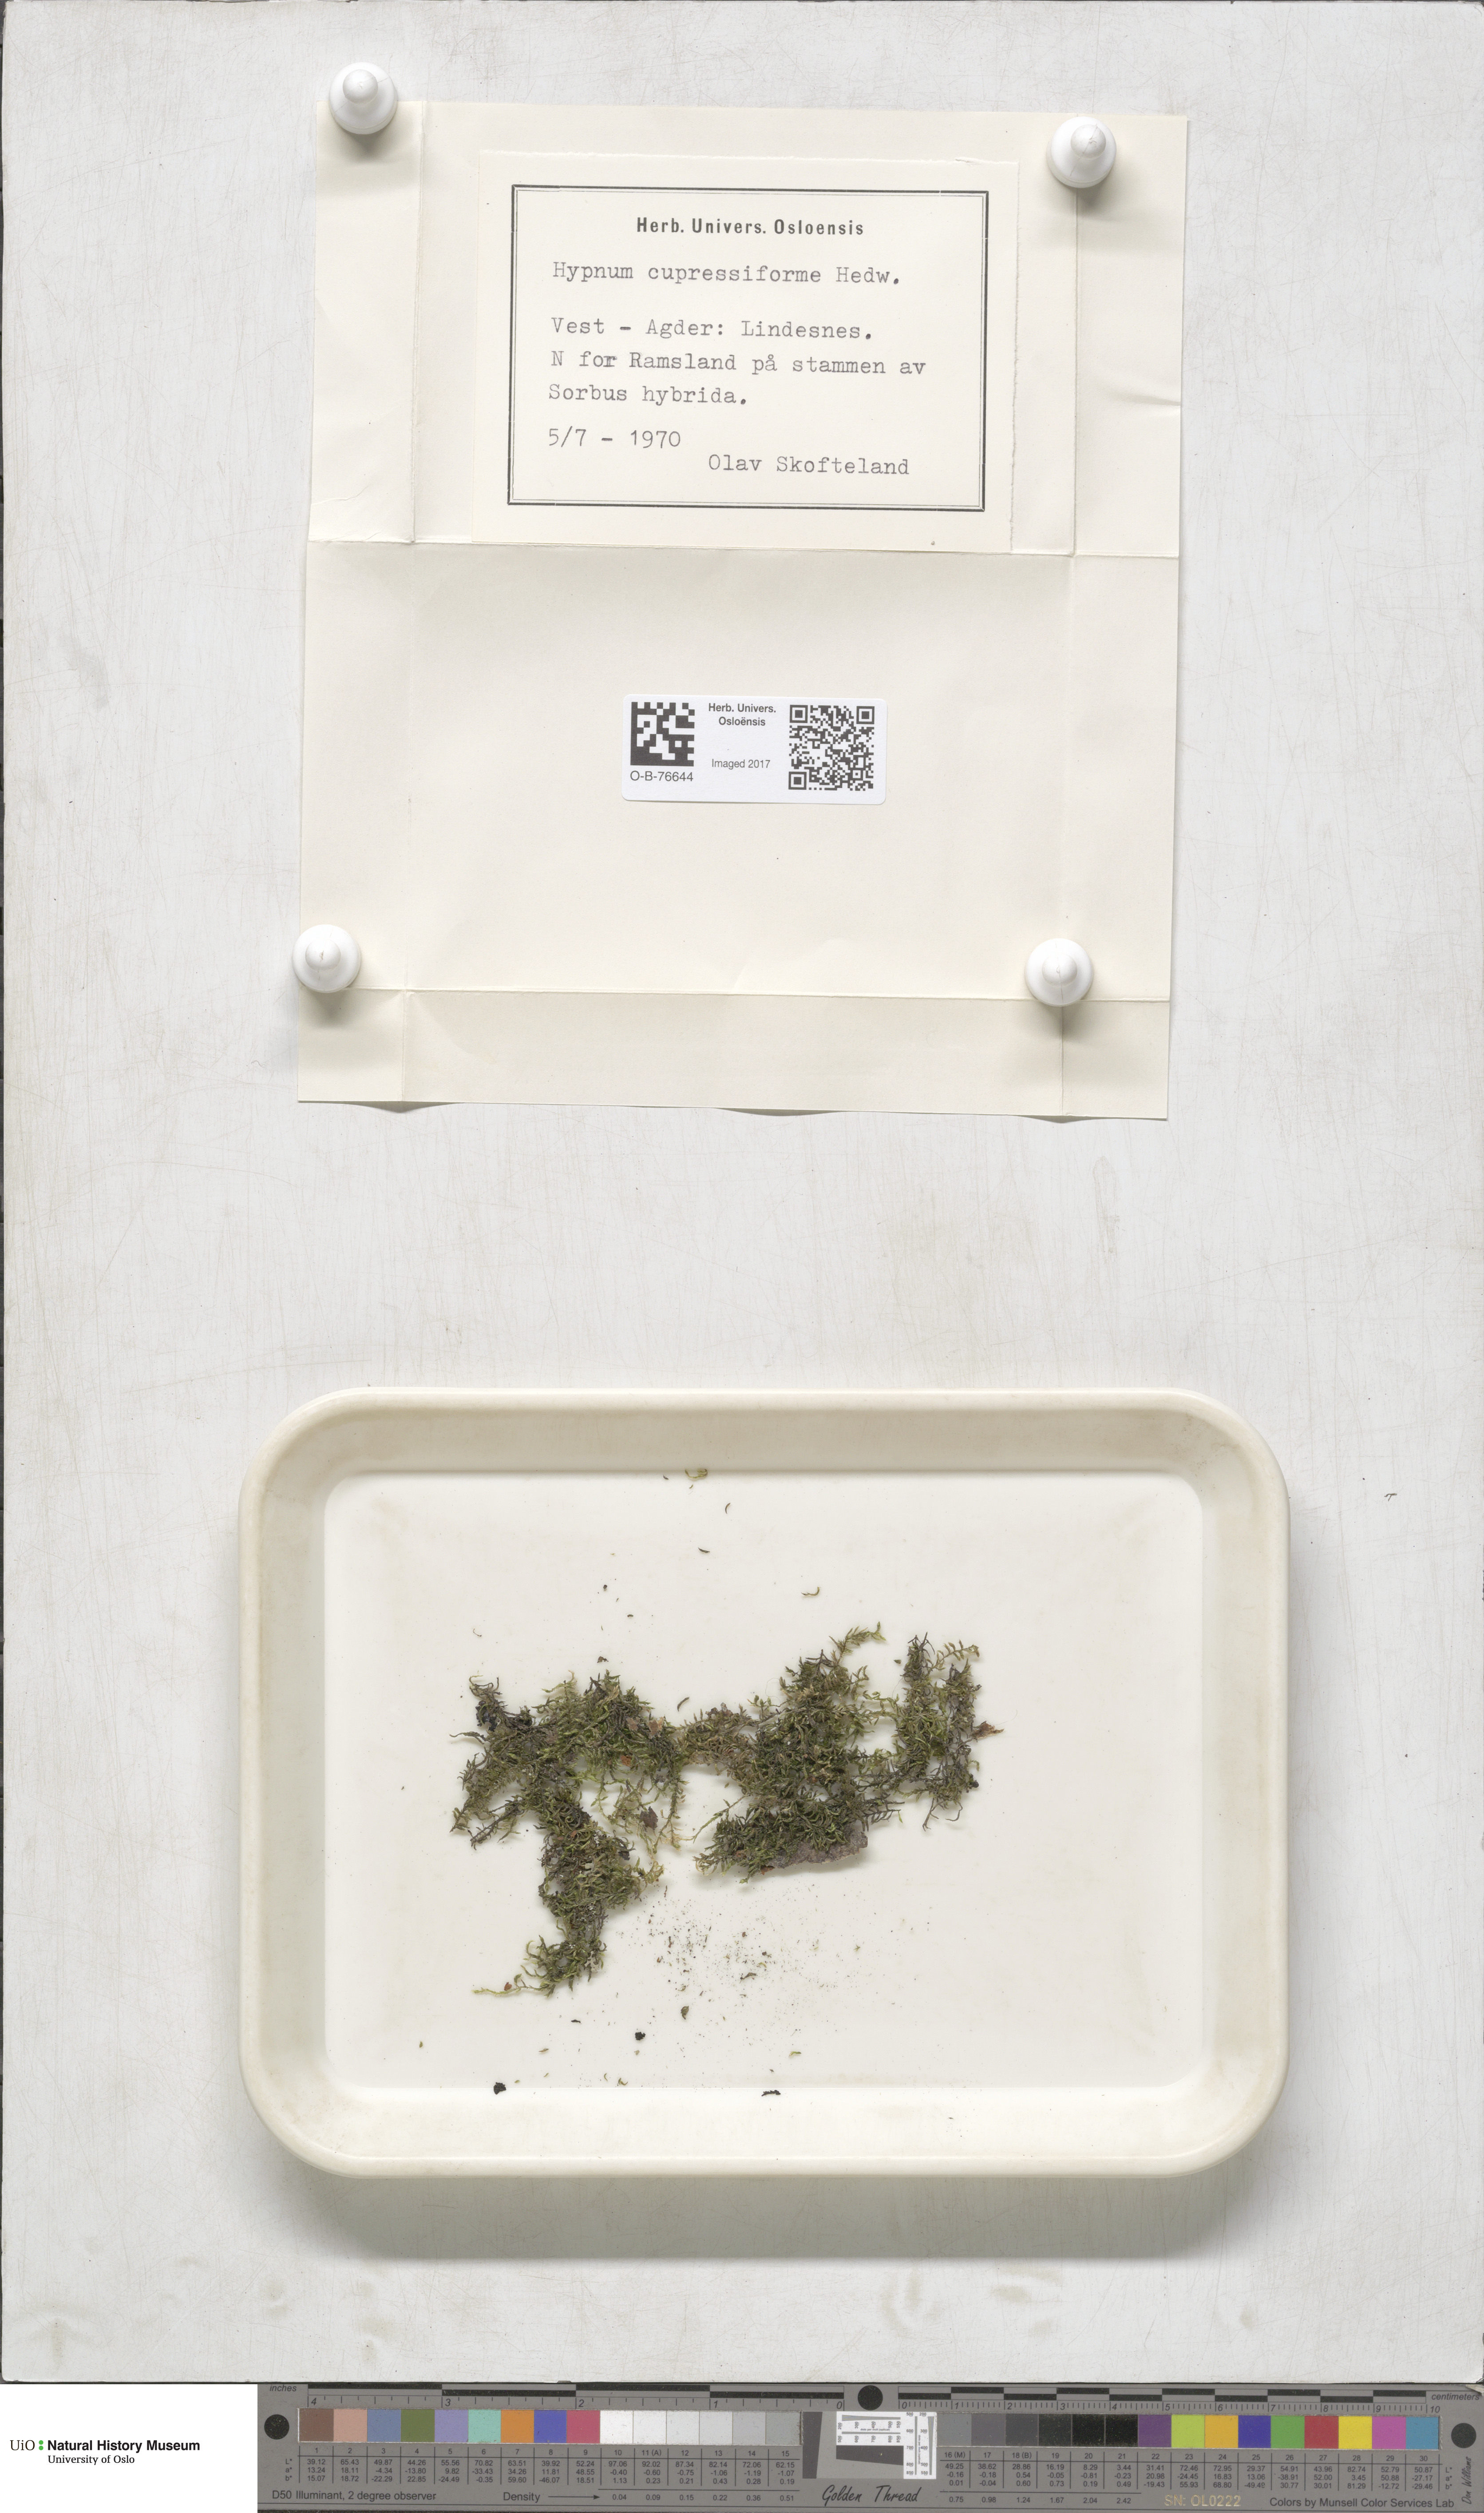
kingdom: Plantae
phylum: Bryophyta
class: Bryopsida
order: Hypnales
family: Hypnaceae
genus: Hypnum
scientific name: Hypnum cupressiforme
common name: Cypress-leaved plait-moss
